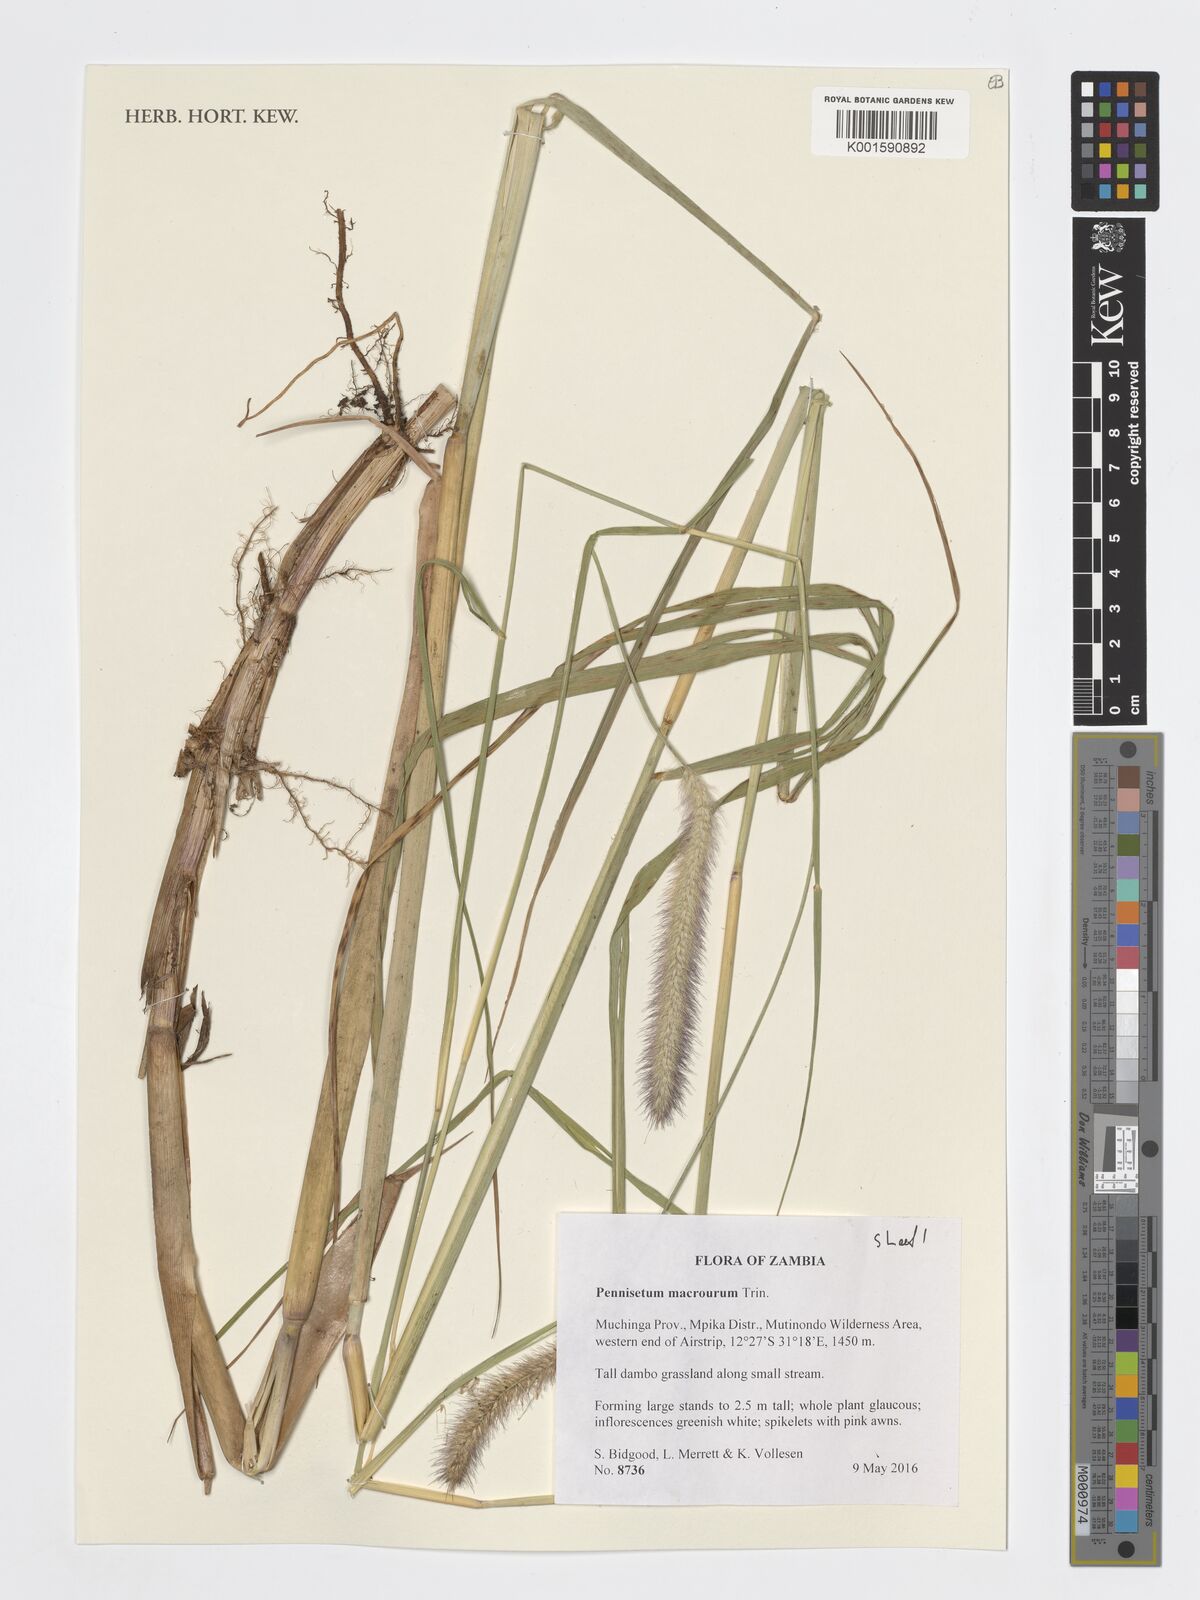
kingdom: Plantae
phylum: Tracheophyta
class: Liliopsida
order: Poales
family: Poaceae
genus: Cenchrus
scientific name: Cenchrus caudatus
